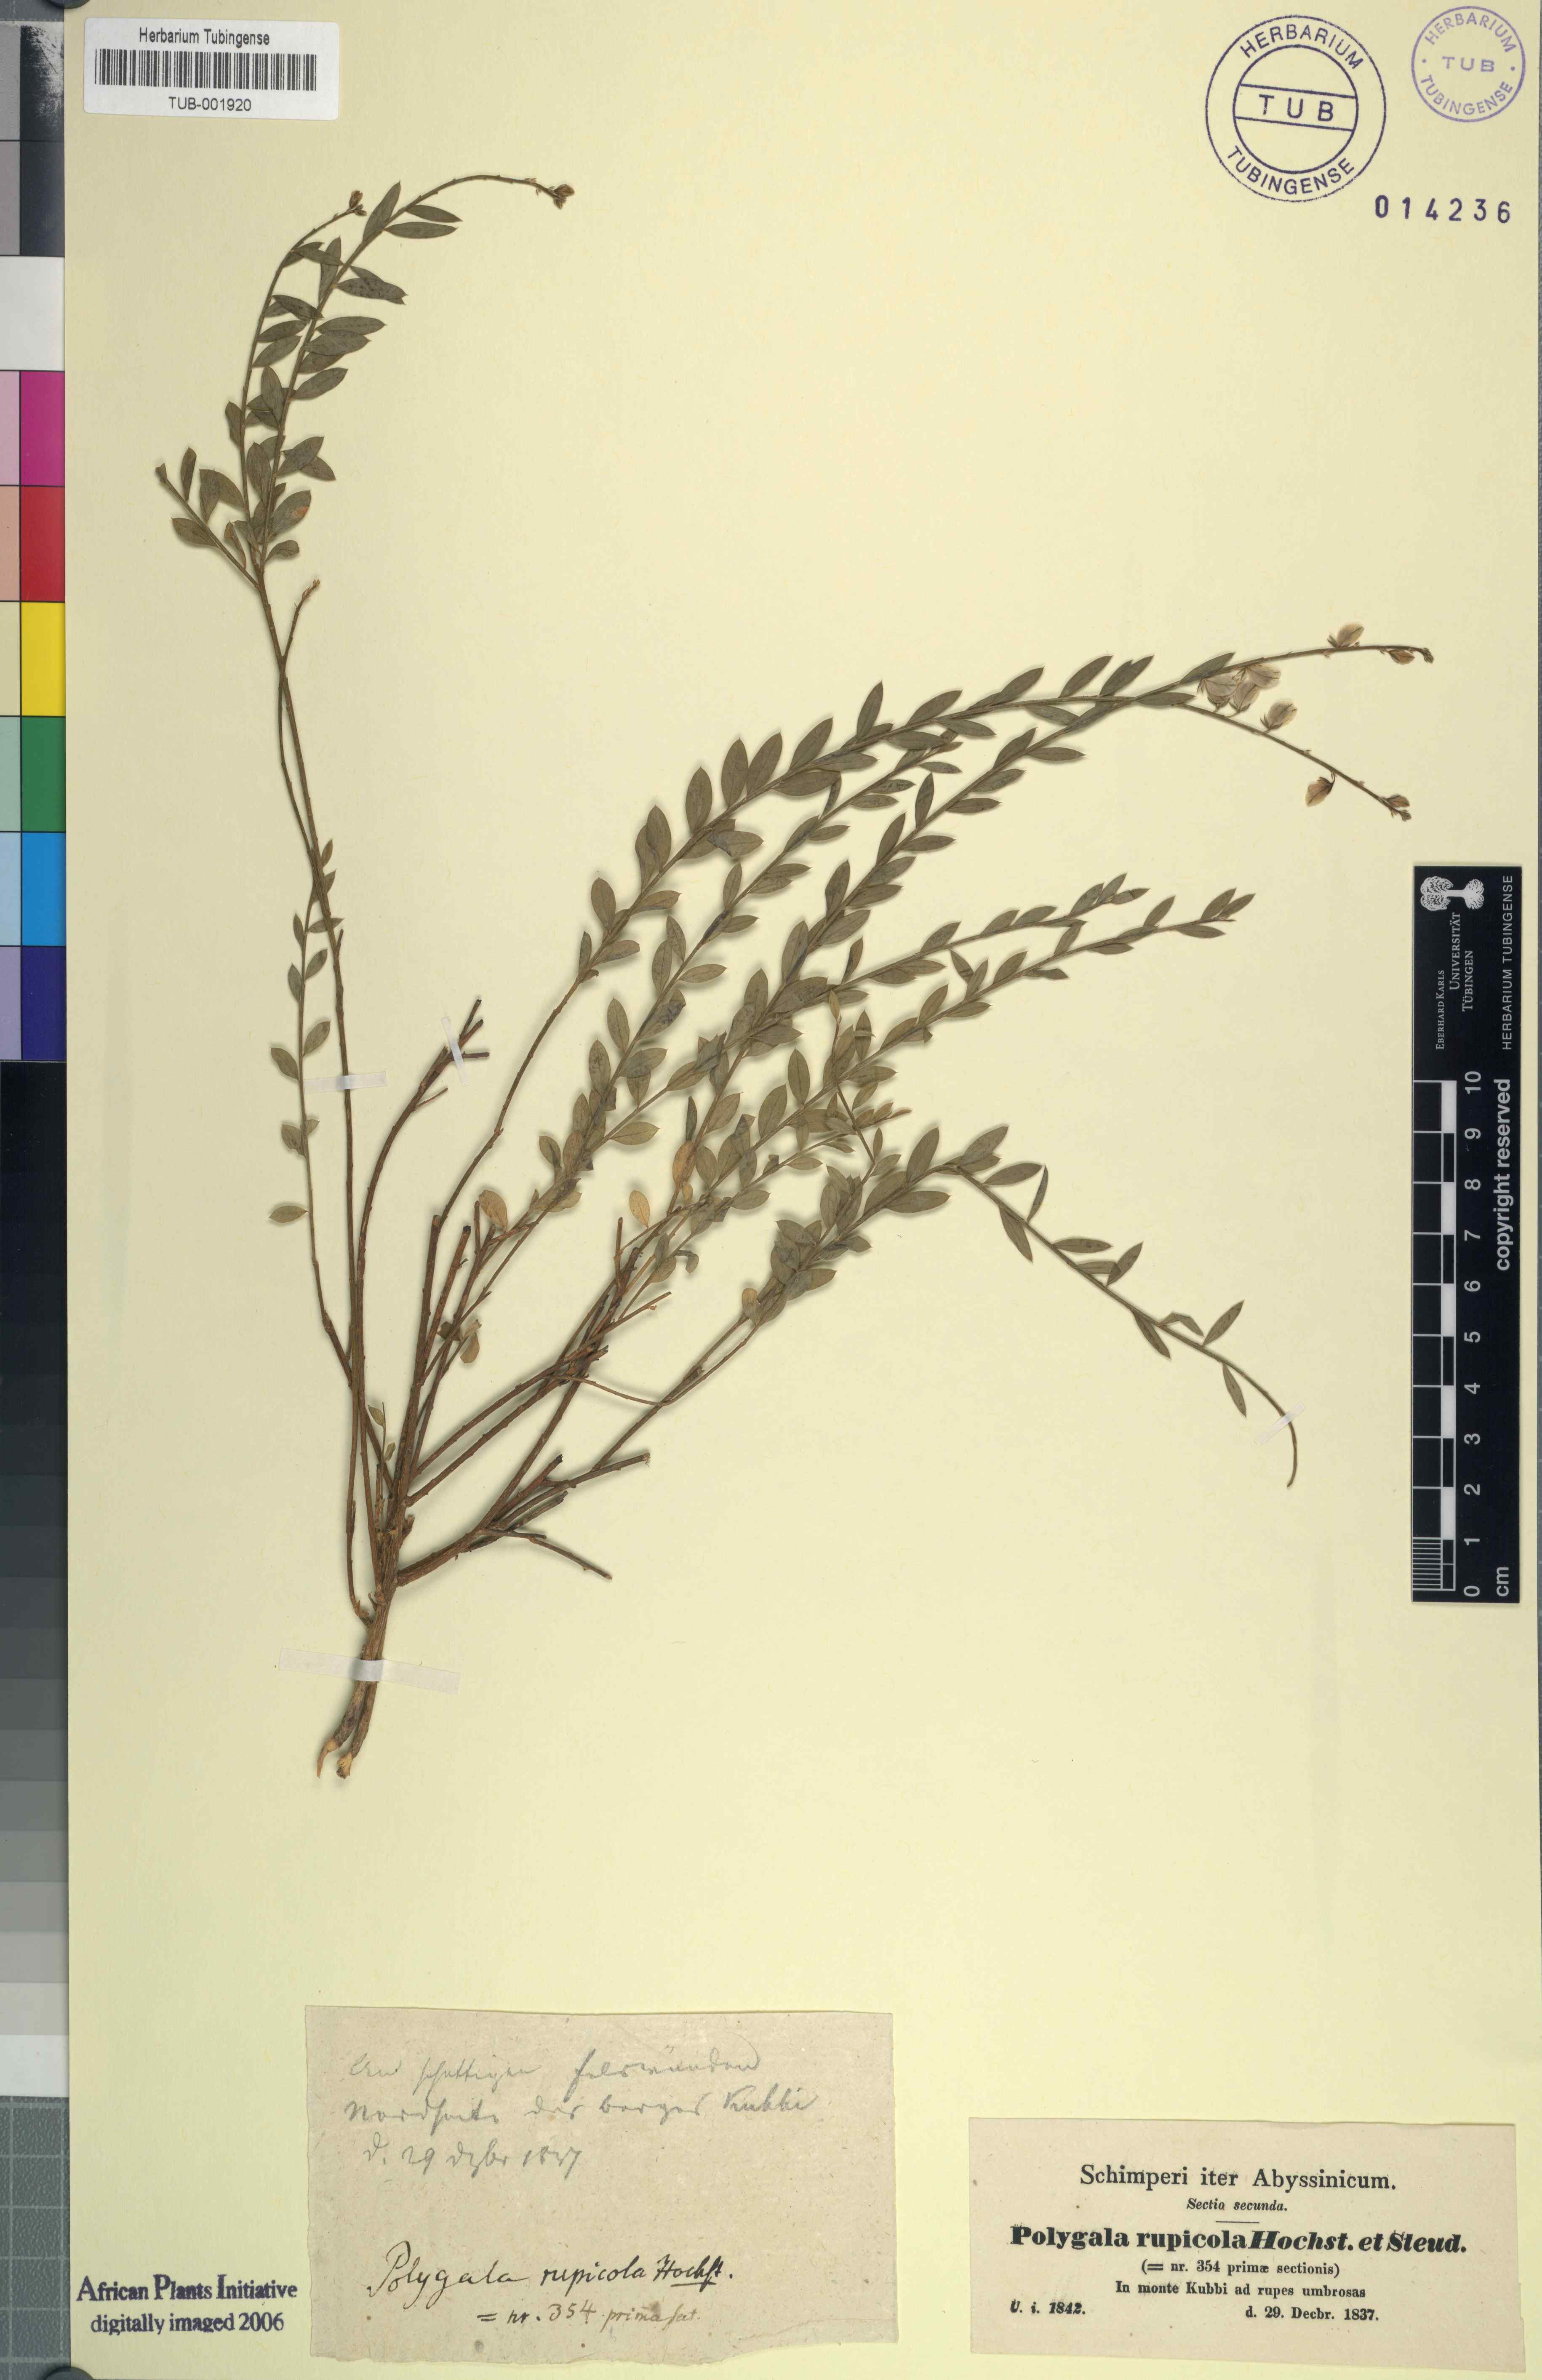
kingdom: Plantae
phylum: Tracheophyta
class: Magnoliopsida
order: Fabales
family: Polygalaceae
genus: Polygala
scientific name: Polygala rupicola
